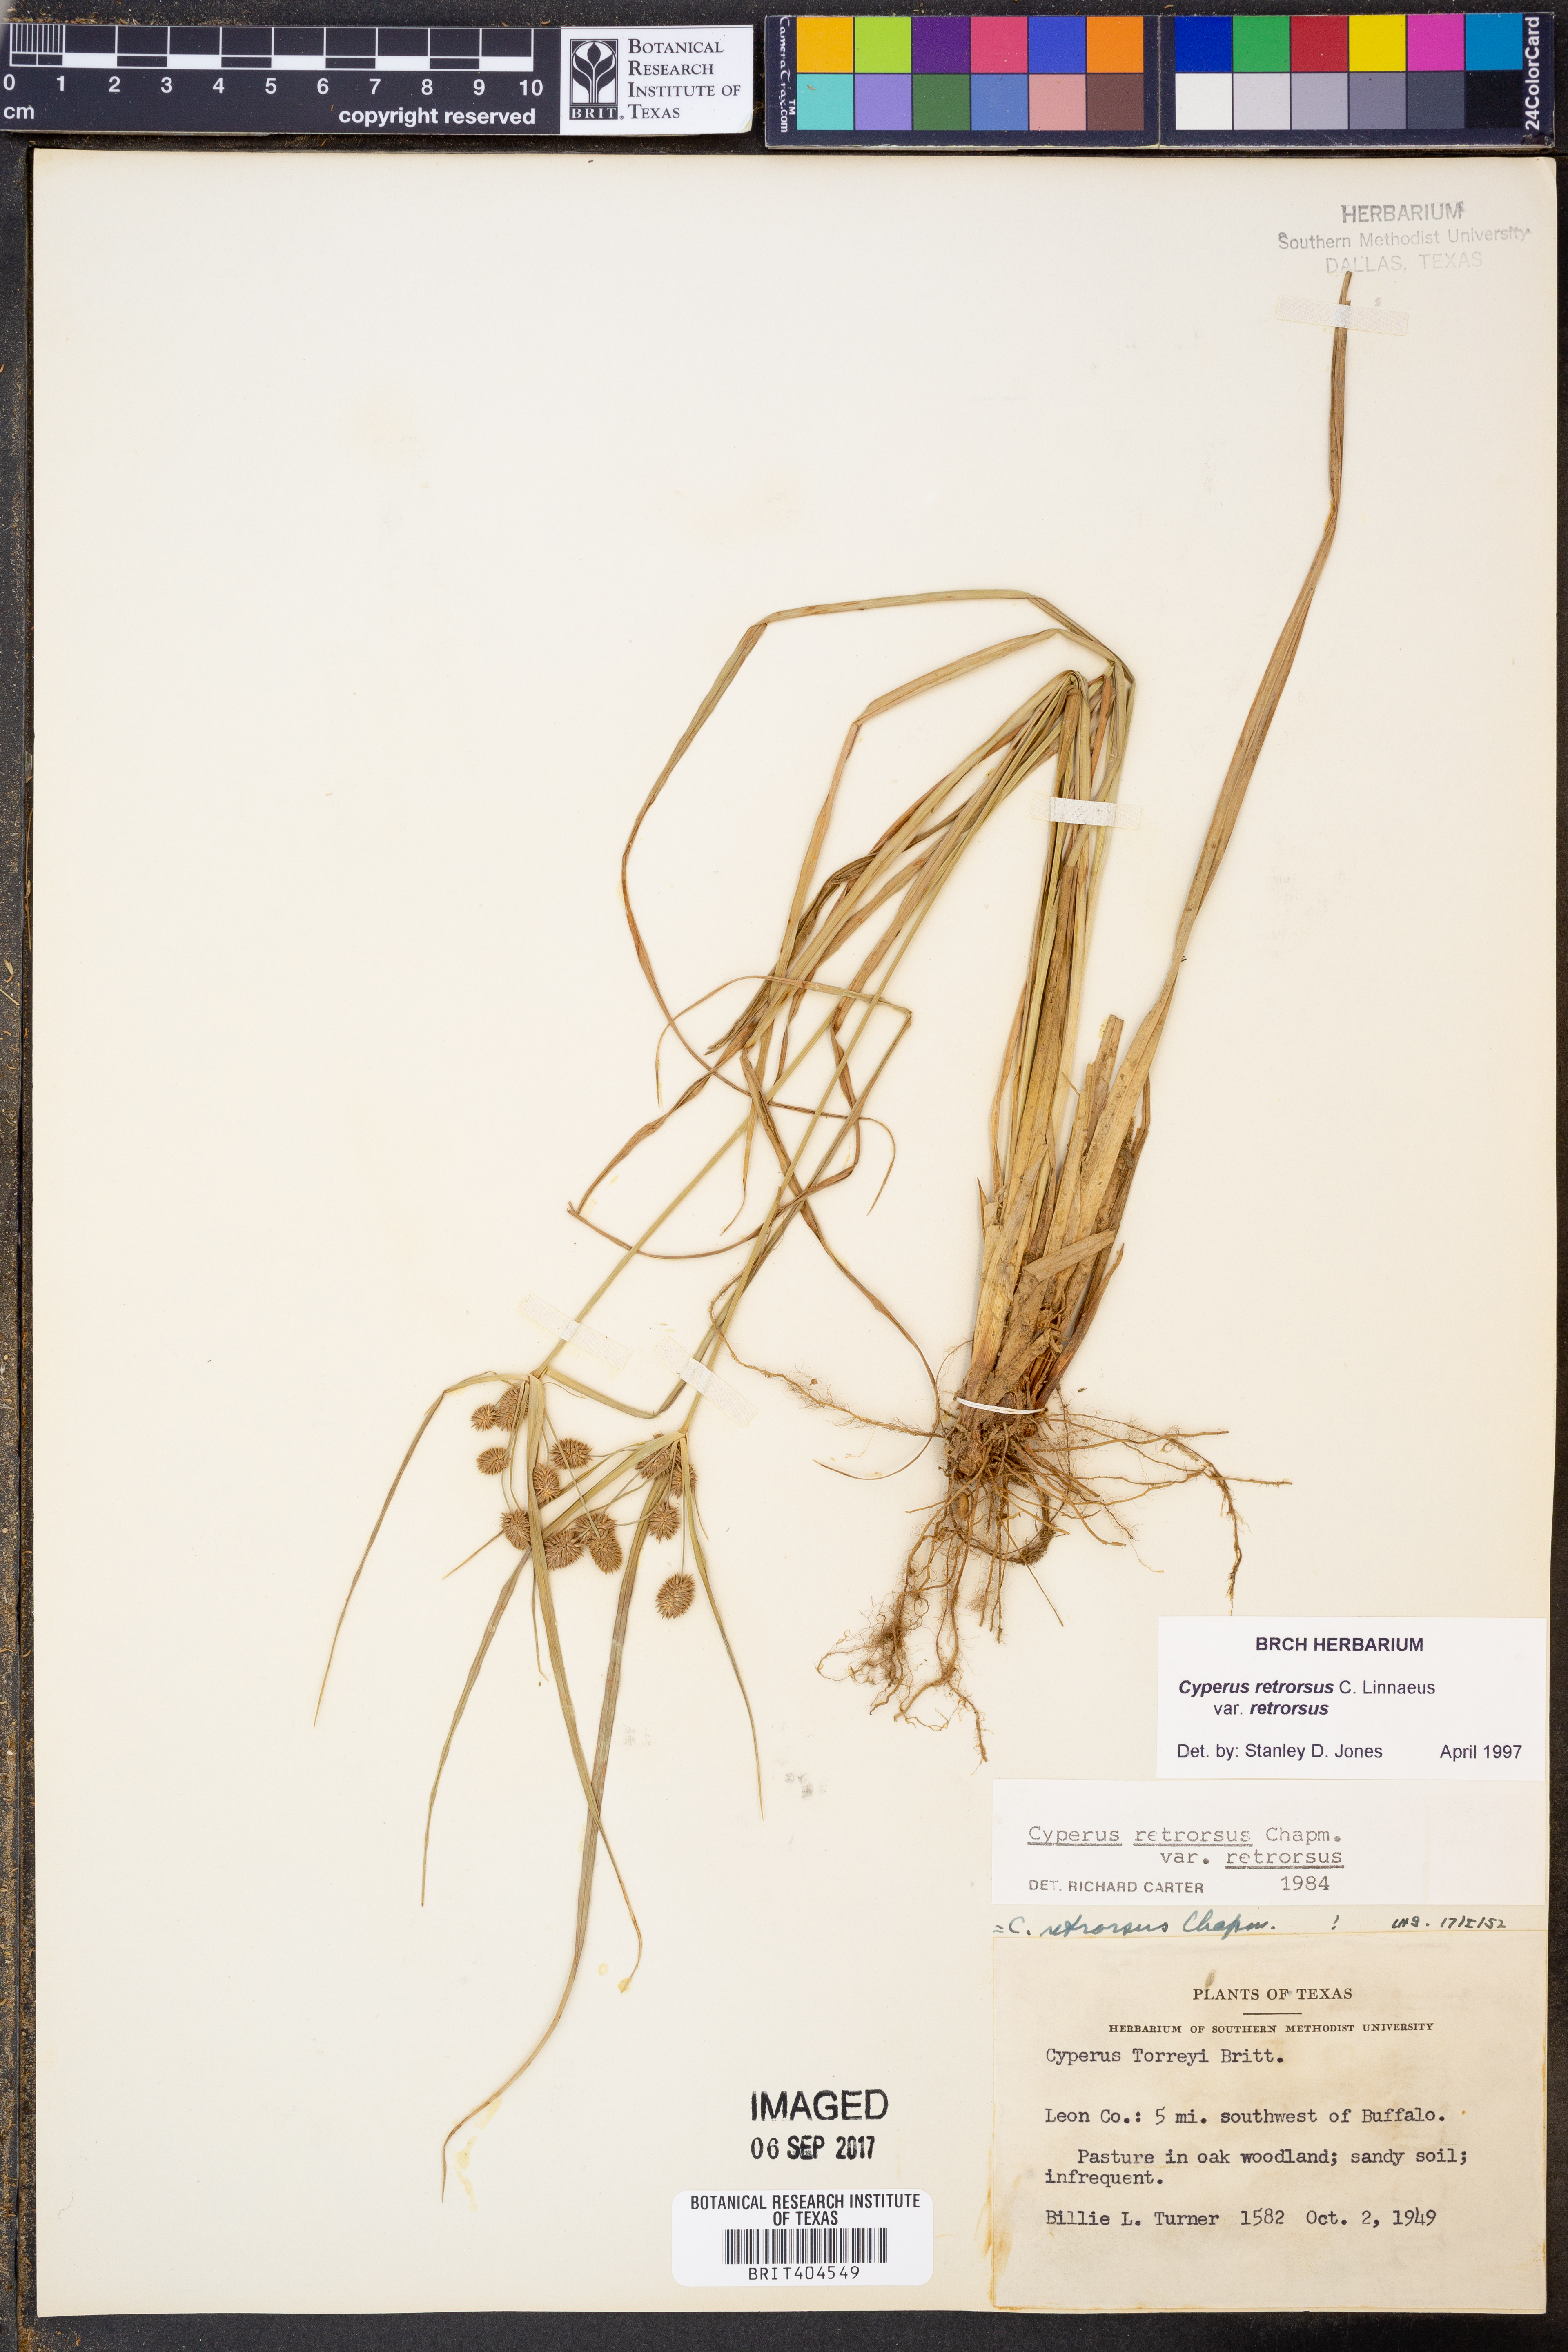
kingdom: Plantae
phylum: Tracheophyta
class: Liliopsida
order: Poales
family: Cyperaceae
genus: Cyperus
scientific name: Cyperus retrorsus
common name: Pinebarren flat sedge
